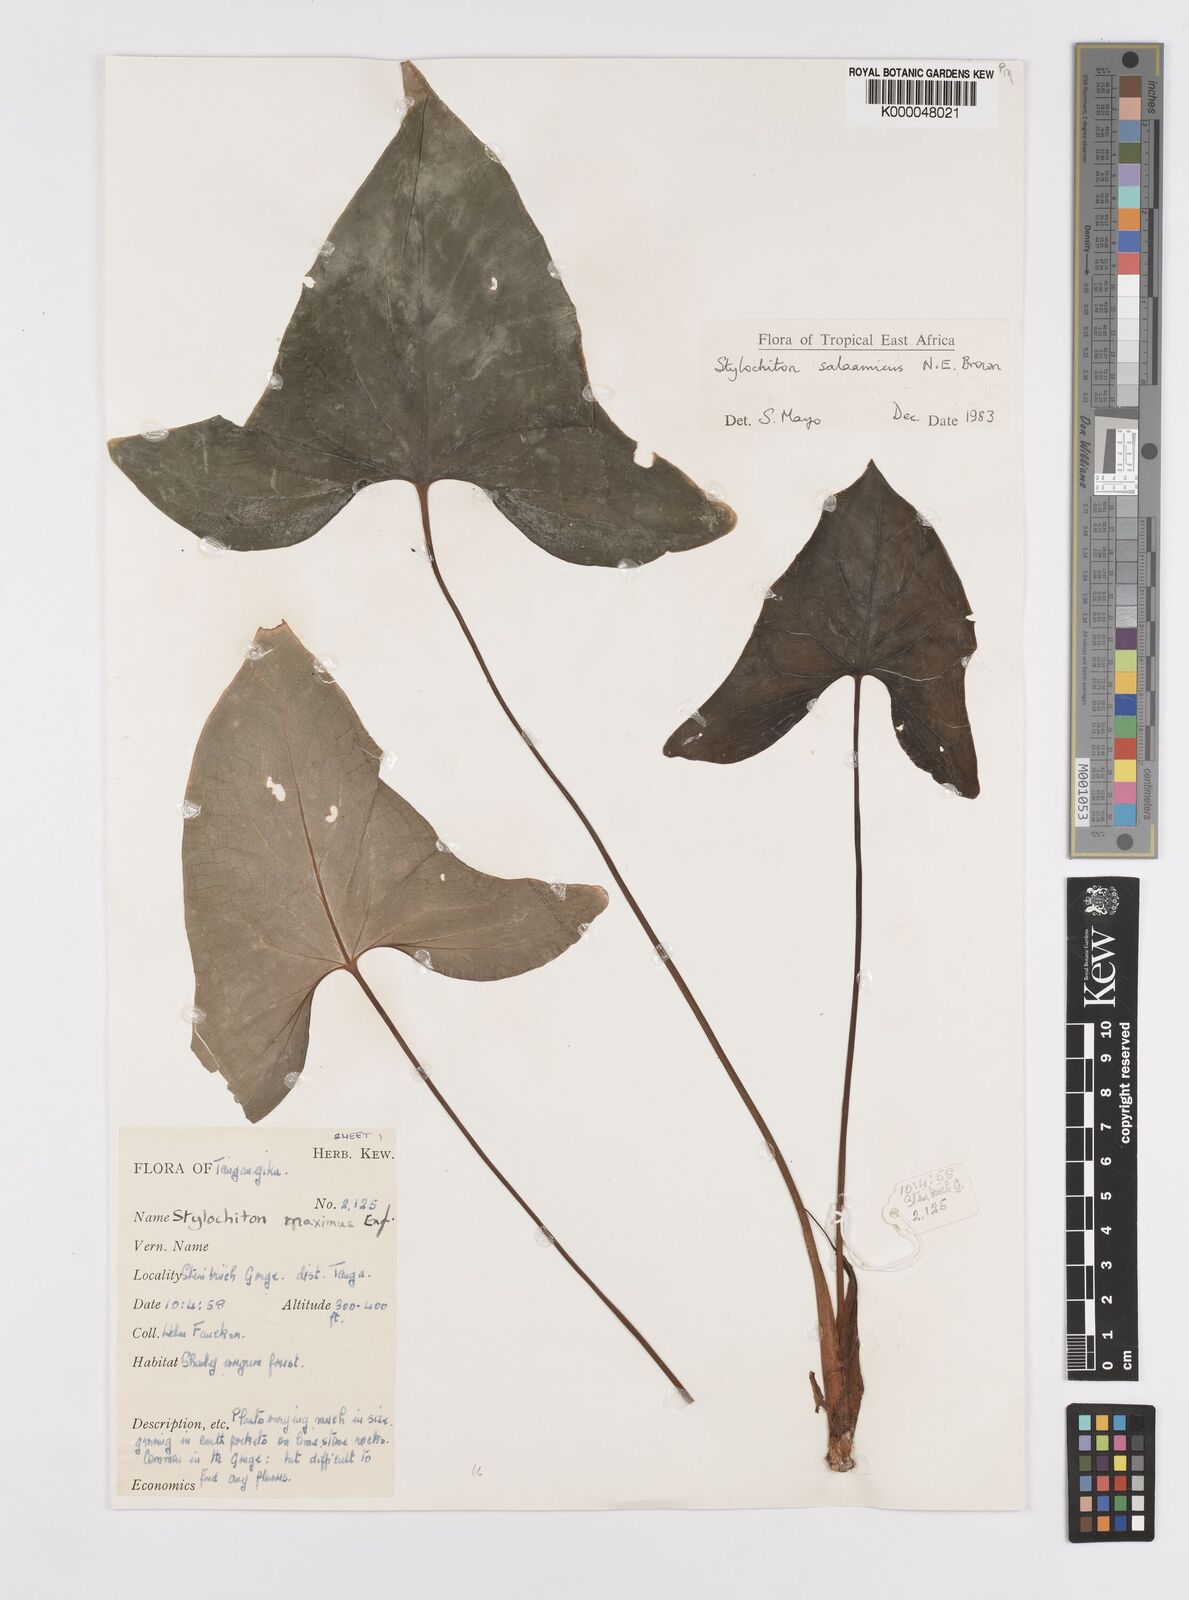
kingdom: Plantae
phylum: Tracheophyta
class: Liliopsida
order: Alismatales
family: Araceae
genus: Stylochaeton
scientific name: Stylochaeton salaamicum
